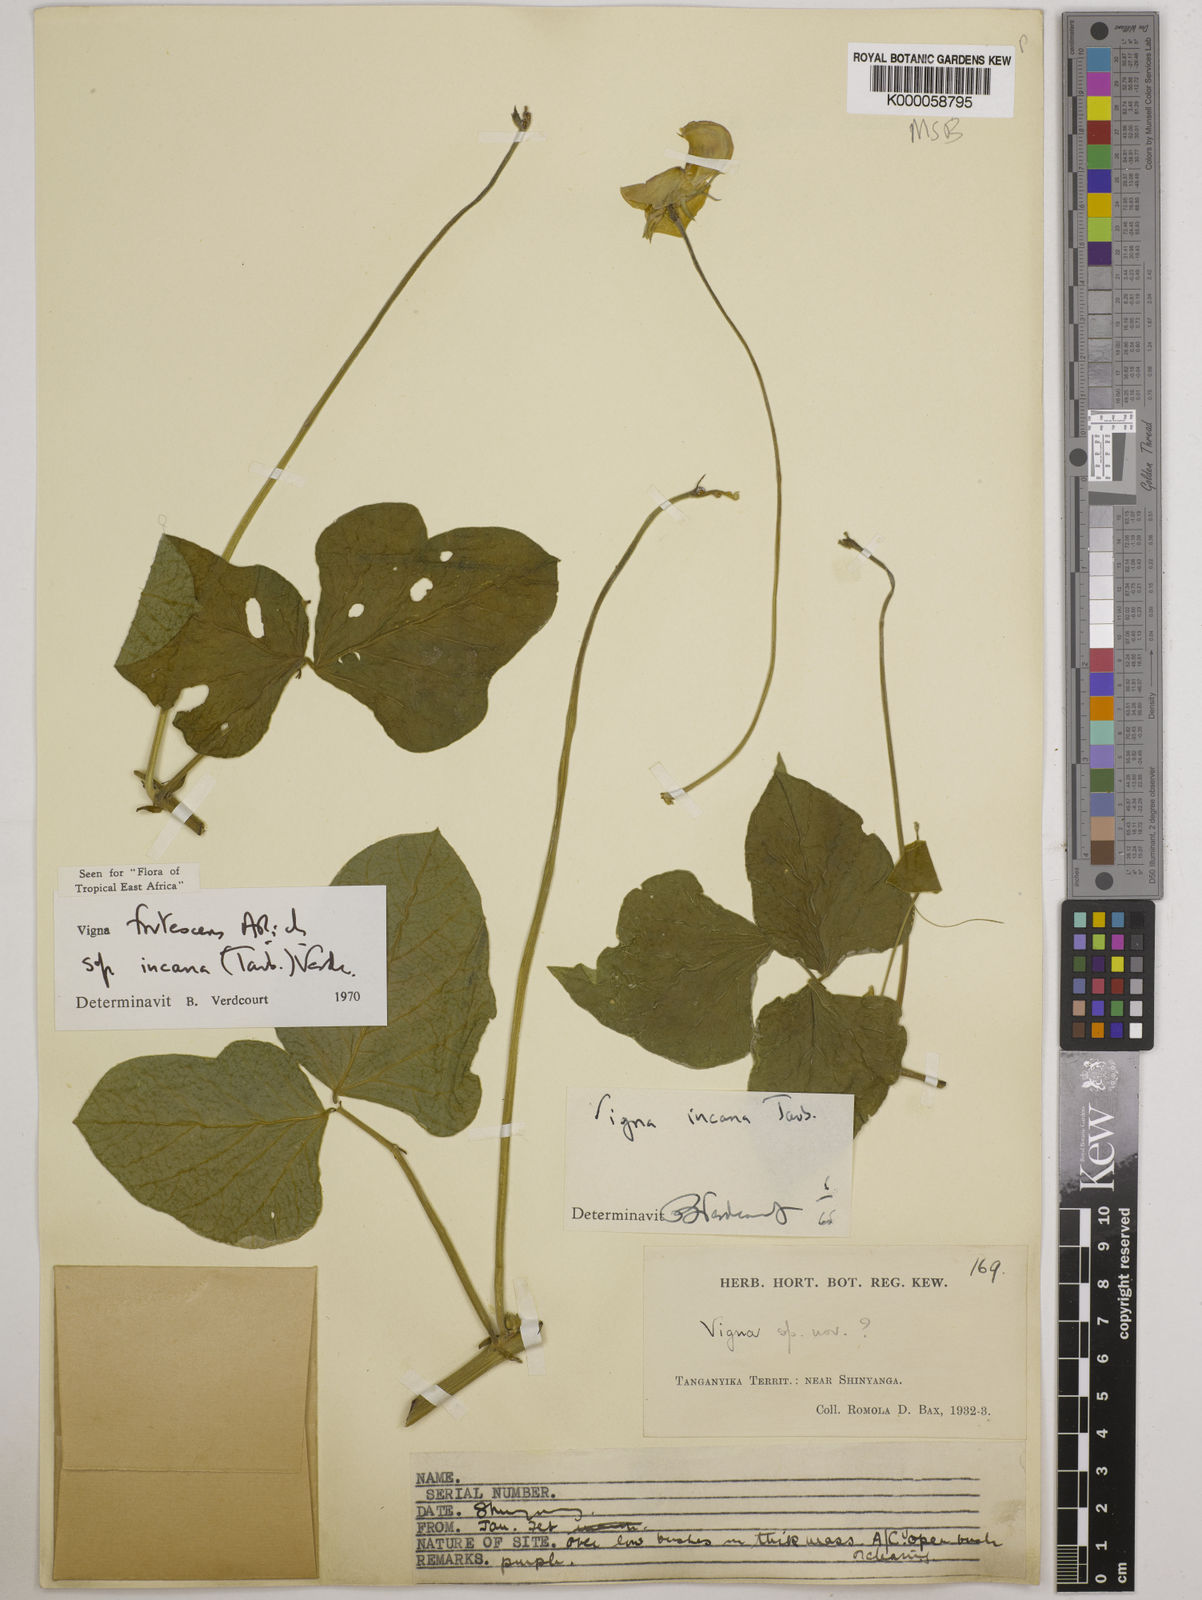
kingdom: Plantae
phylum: Tracheophyta
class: Magnoliopsida
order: Fabales
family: Fabaceae
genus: Vigna
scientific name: Vigna
